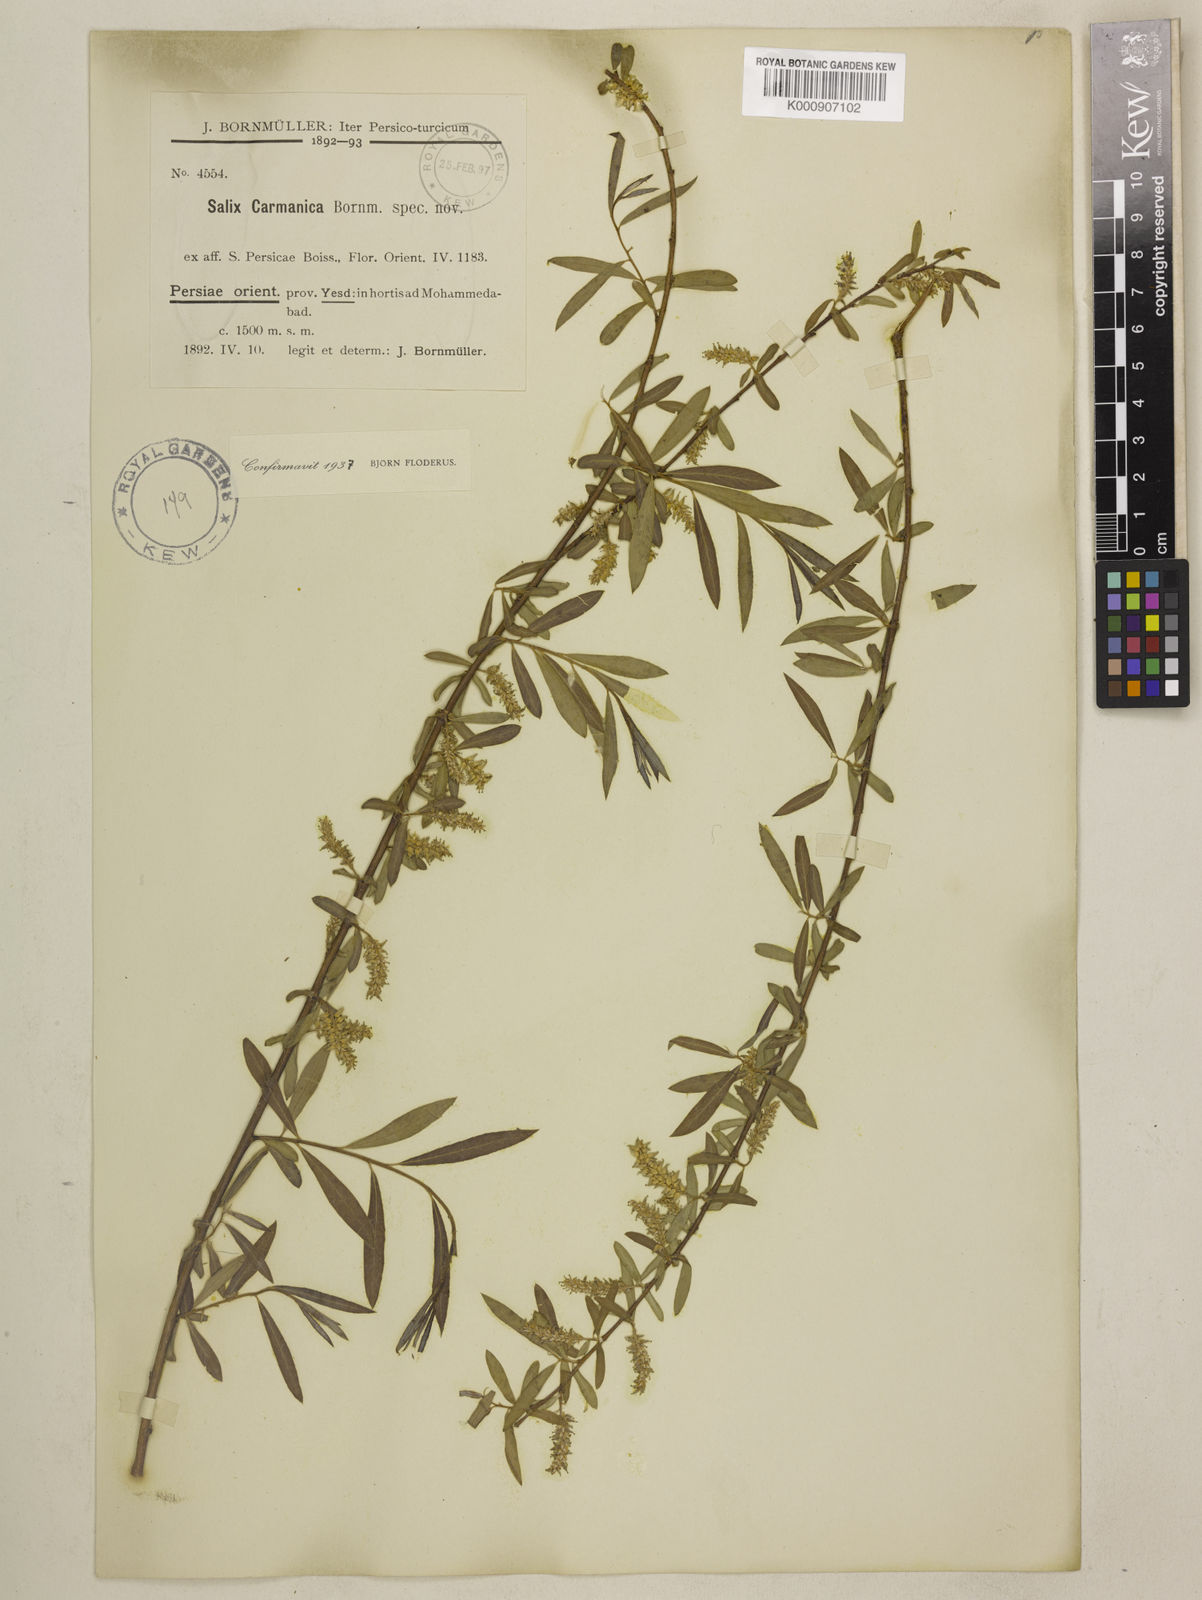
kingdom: Plantae
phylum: Tracheophyta
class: Magnoliopsida
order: Malpighiales
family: Salicaceae
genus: Salix
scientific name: Salix
